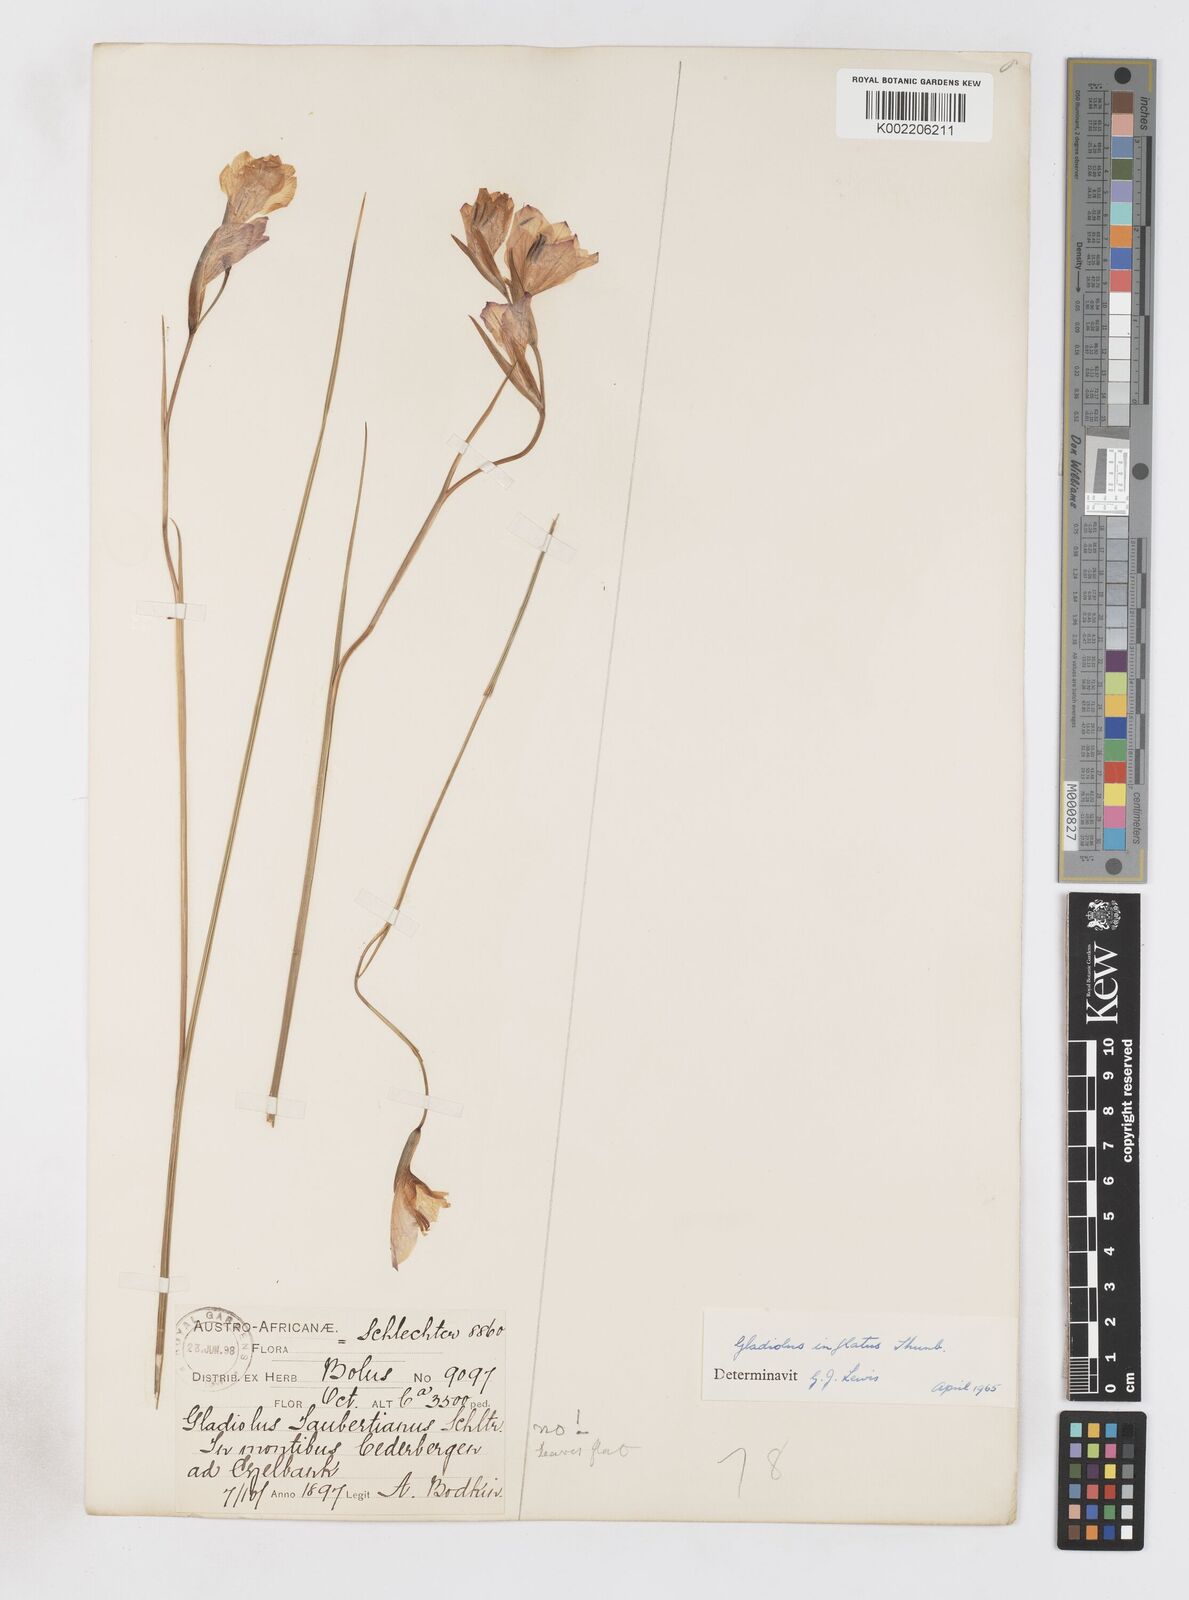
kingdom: Plantae
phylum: Tracheophyta
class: Liliopsida
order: Asparagales
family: Iridaceae
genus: Gladiolus
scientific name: Gladiolus inflatus
